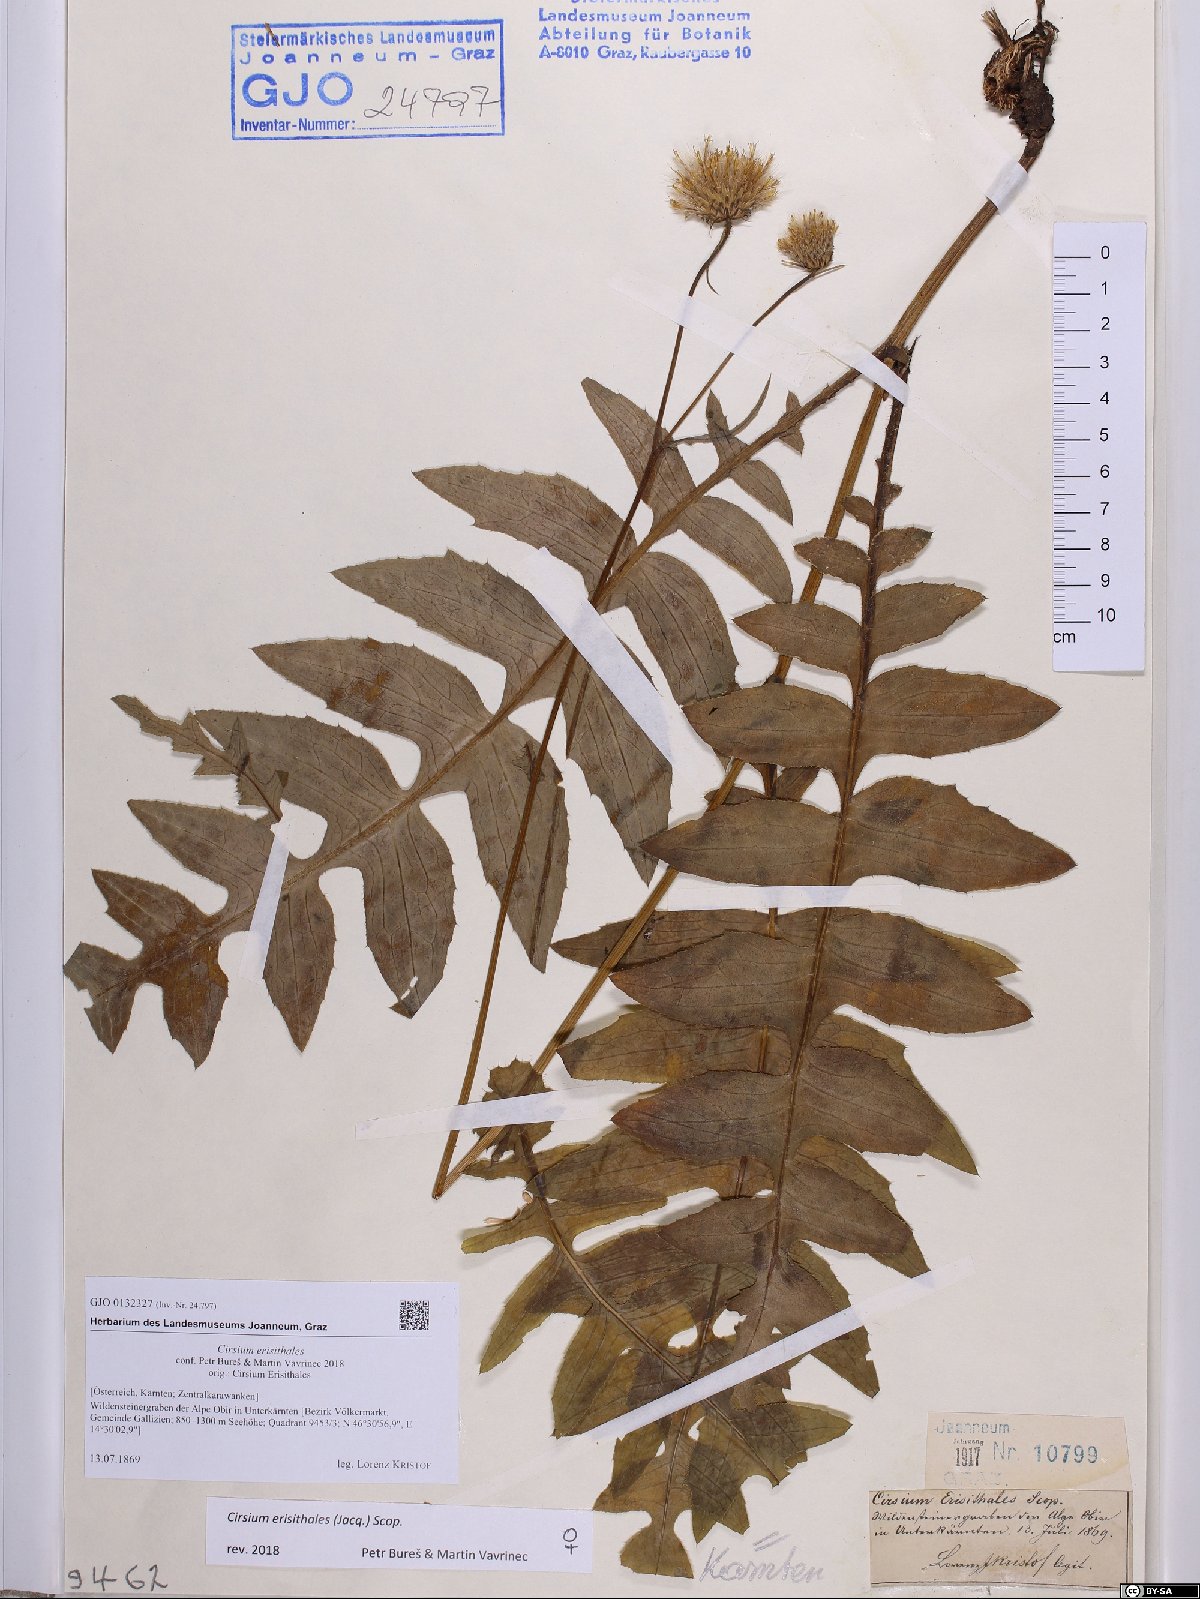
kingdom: Plantae
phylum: Tracheophyta
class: Magnoliopsida
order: Asterales
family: Asteraceae
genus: Cirsium
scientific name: Cirsium erisithales
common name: Yellow thistle
